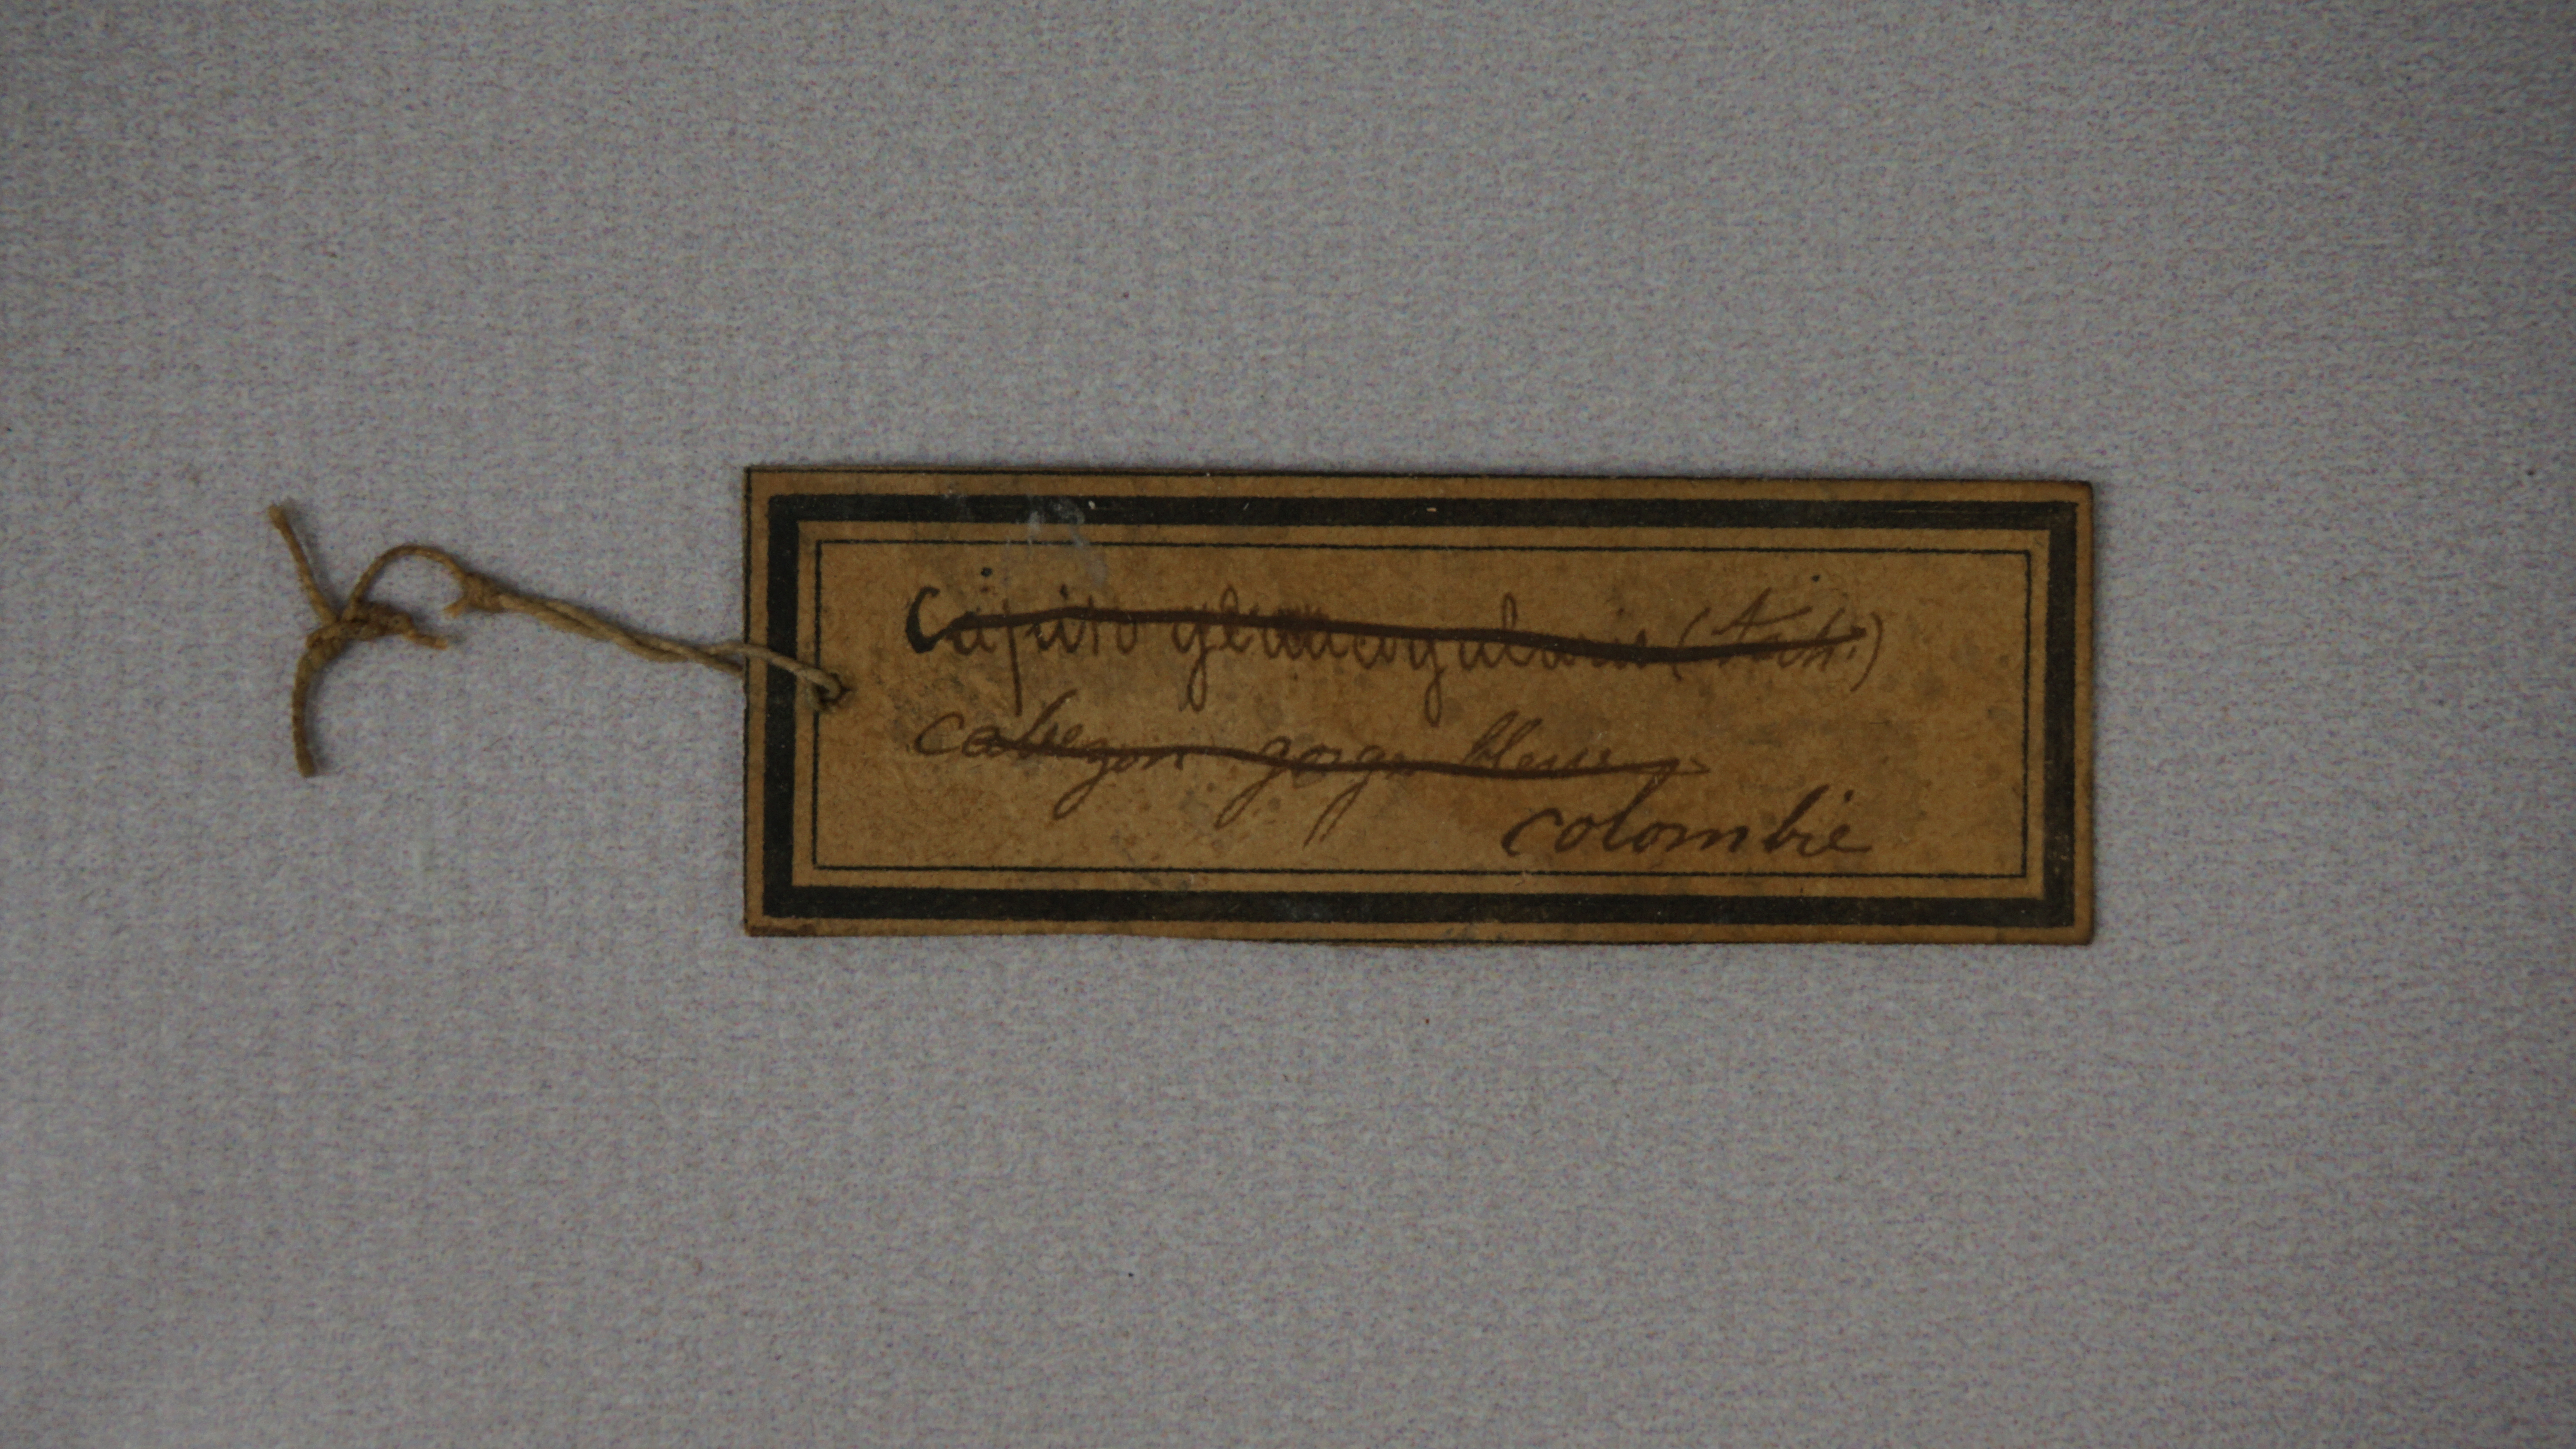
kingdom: Animalia
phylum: Chordata
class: Aves
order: Piciformes
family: Capitonidae
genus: Eubucco
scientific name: Eubucco bourcierii
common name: Red-headed barbet
